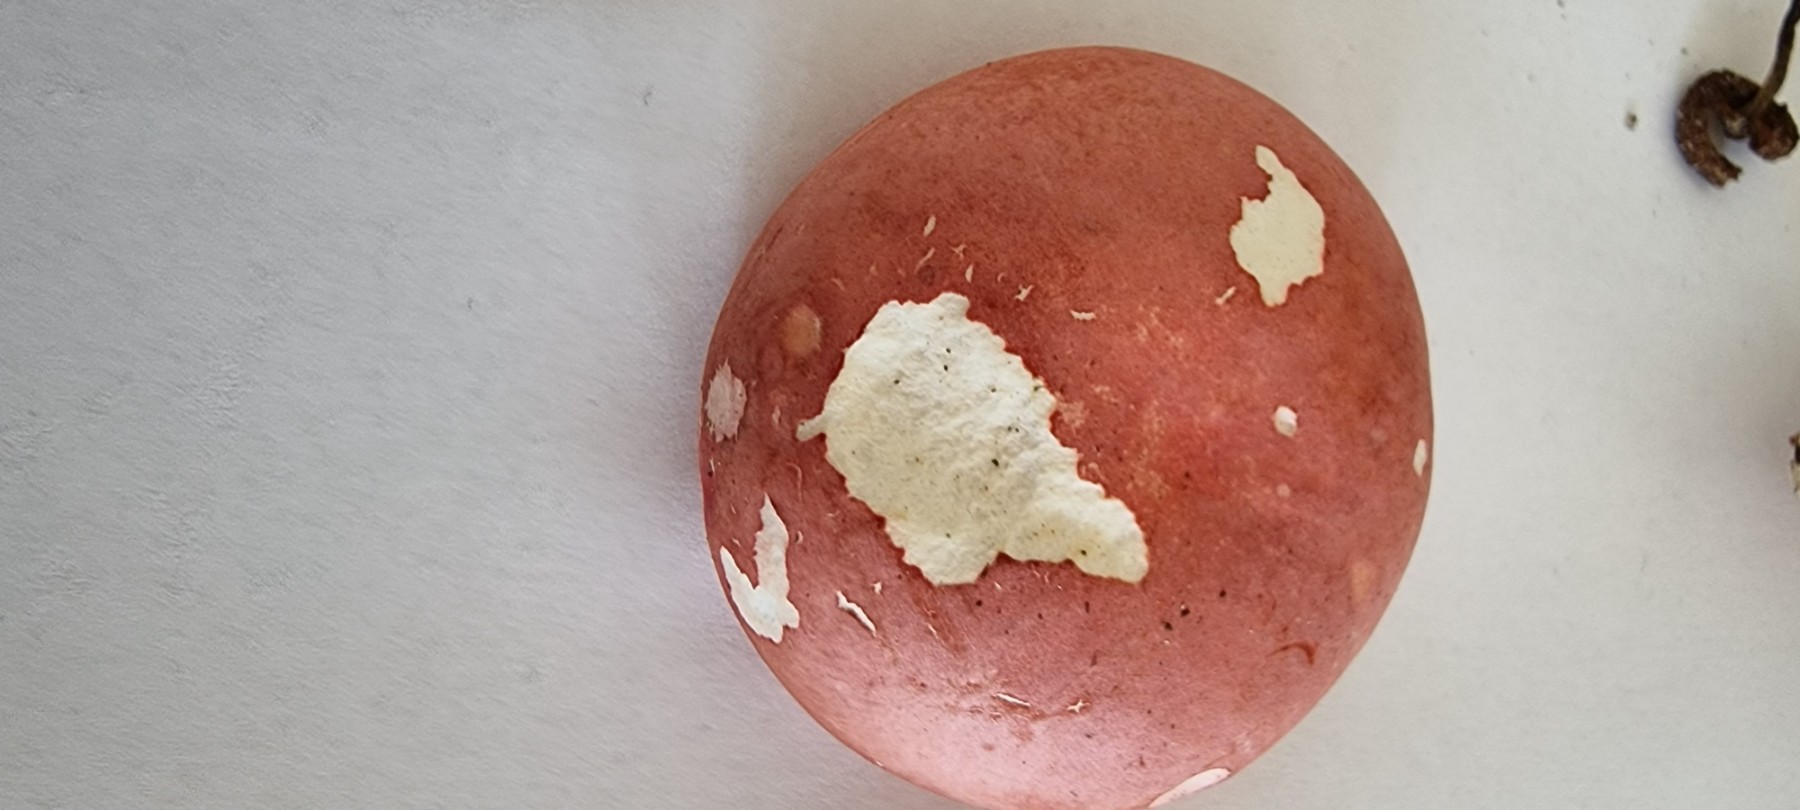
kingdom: Fungi
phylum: Basidiomycota
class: Agaricomycetes
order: Russulales
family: Russulaceae
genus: Russula
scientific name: Russula rosea
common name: fastkødet skørhat
